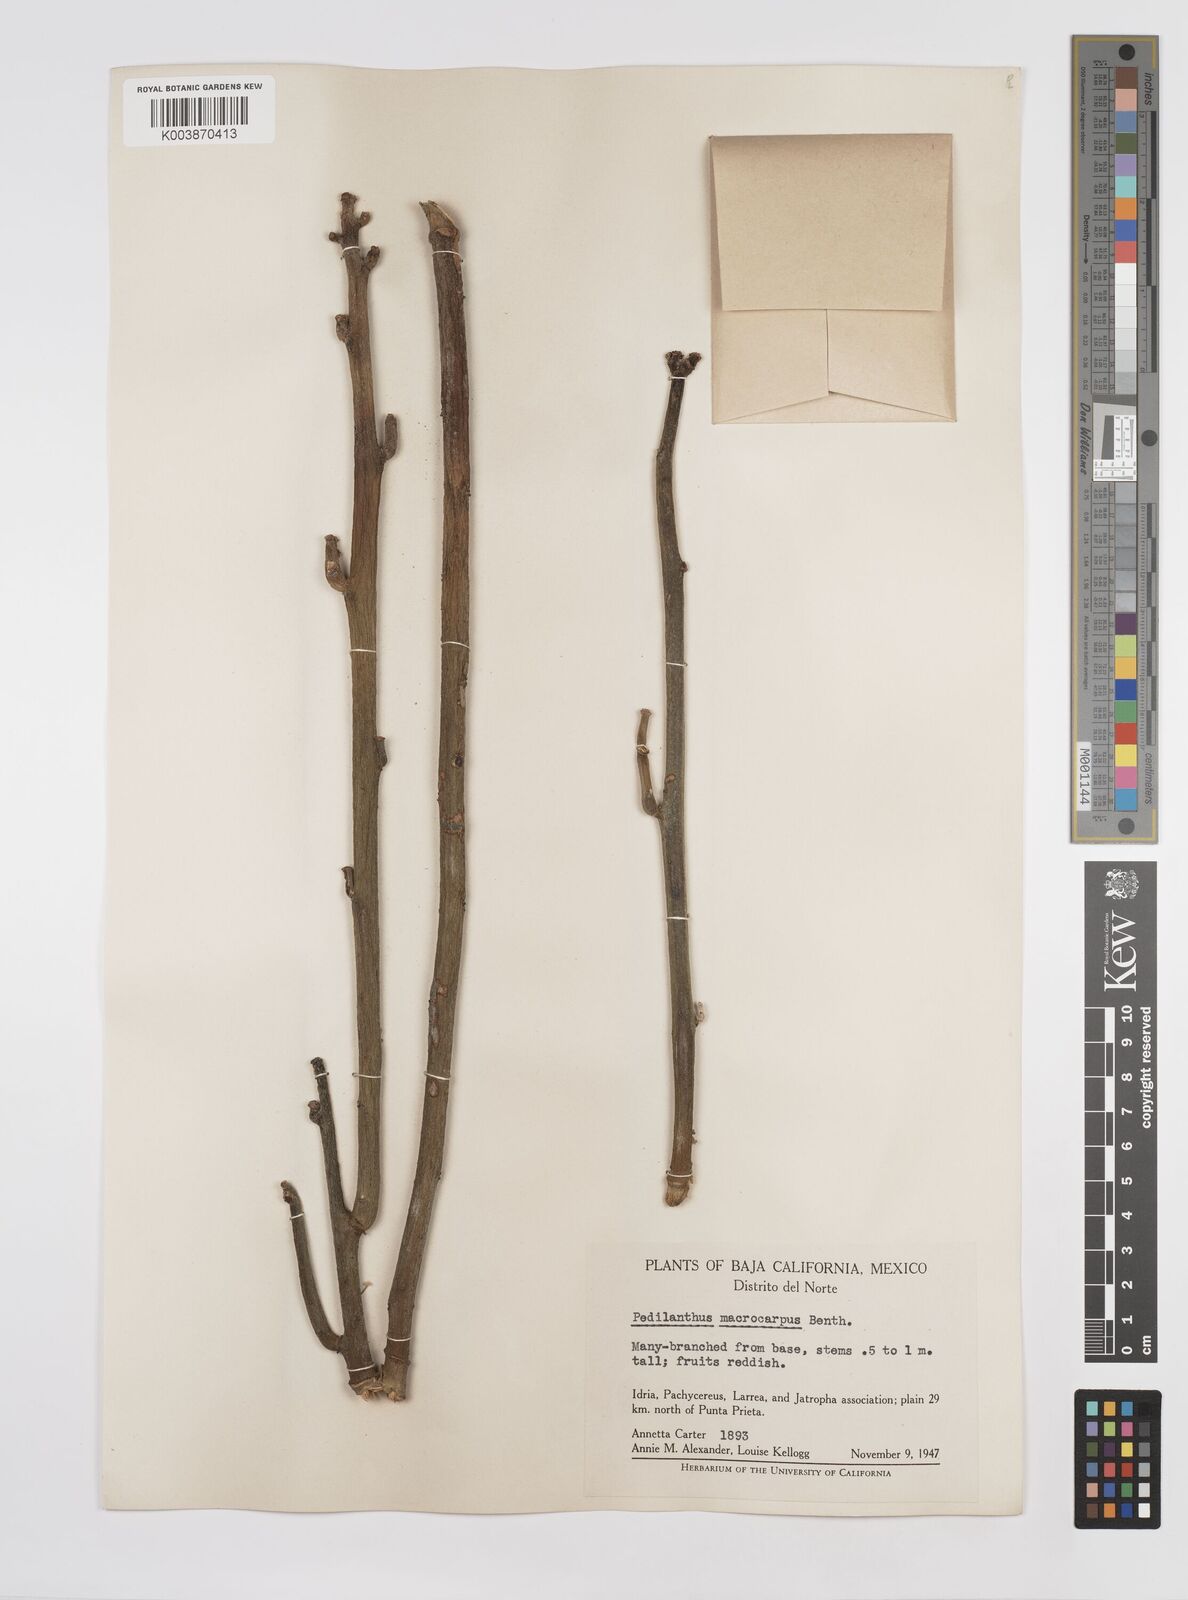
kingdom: Plantae
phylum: Tracheophyta
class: Magnoliopsida
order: Malpighiales
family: Euphorbiaceae
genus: Euphorbia
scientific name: Euphorbia lomelii
